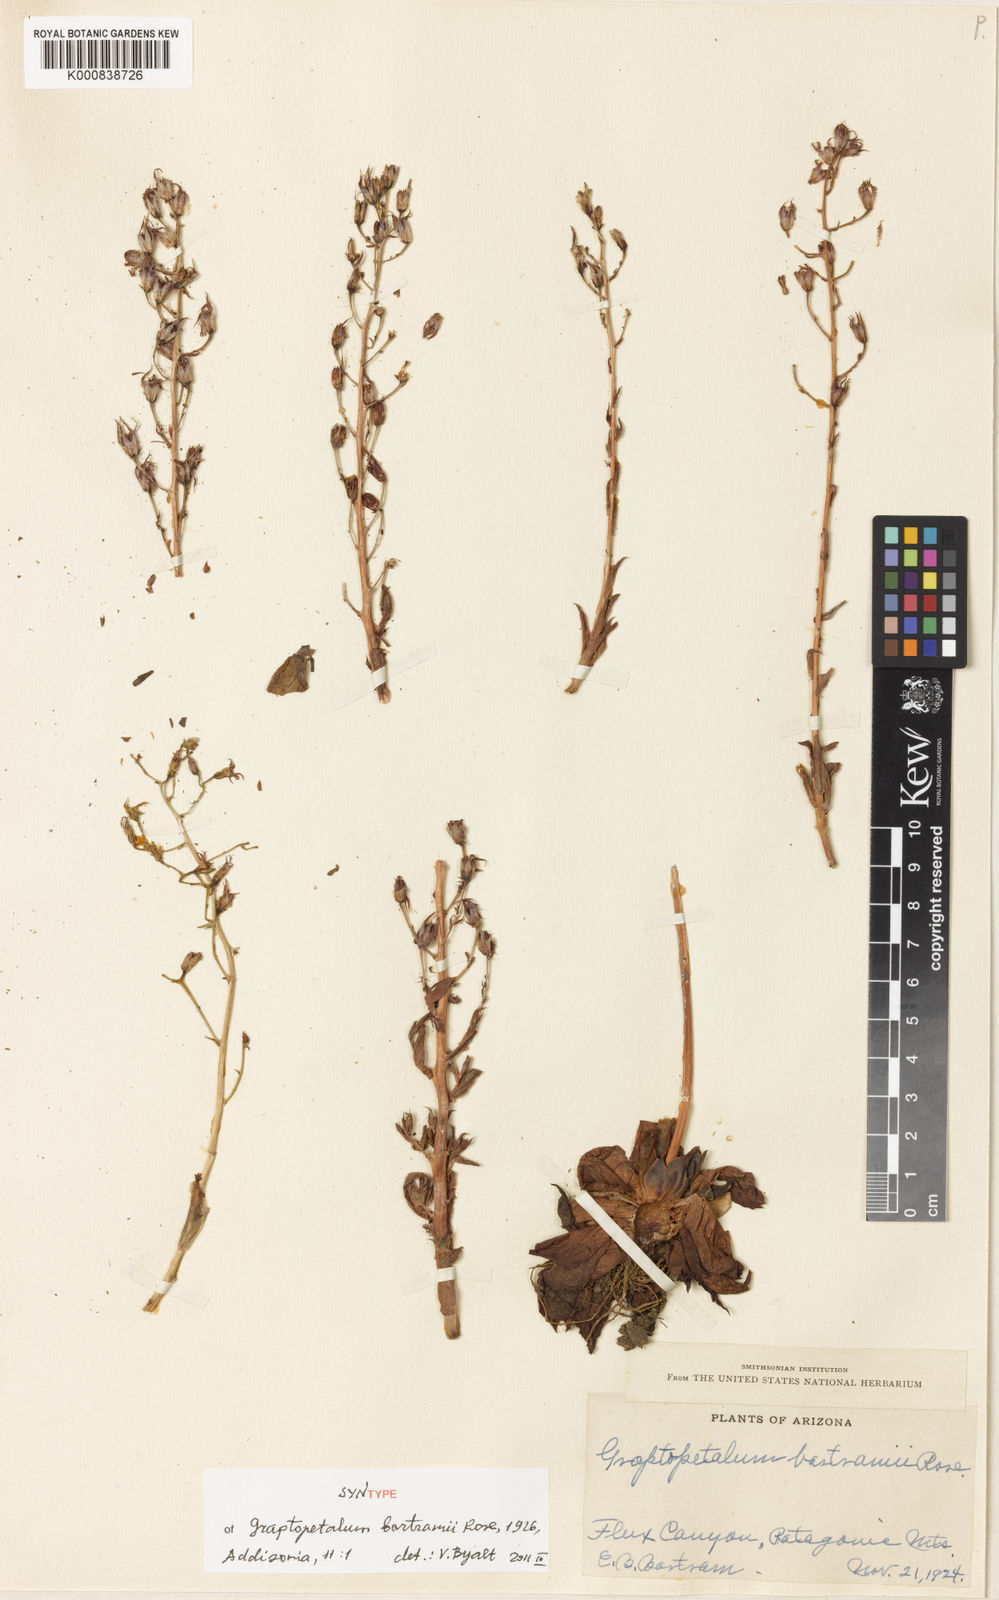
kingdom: Plantae
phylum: Tracheophyta
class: Magnoliopsida
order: Saxifragales
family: Crassulaceae
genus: Sedum
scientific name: Sedum
